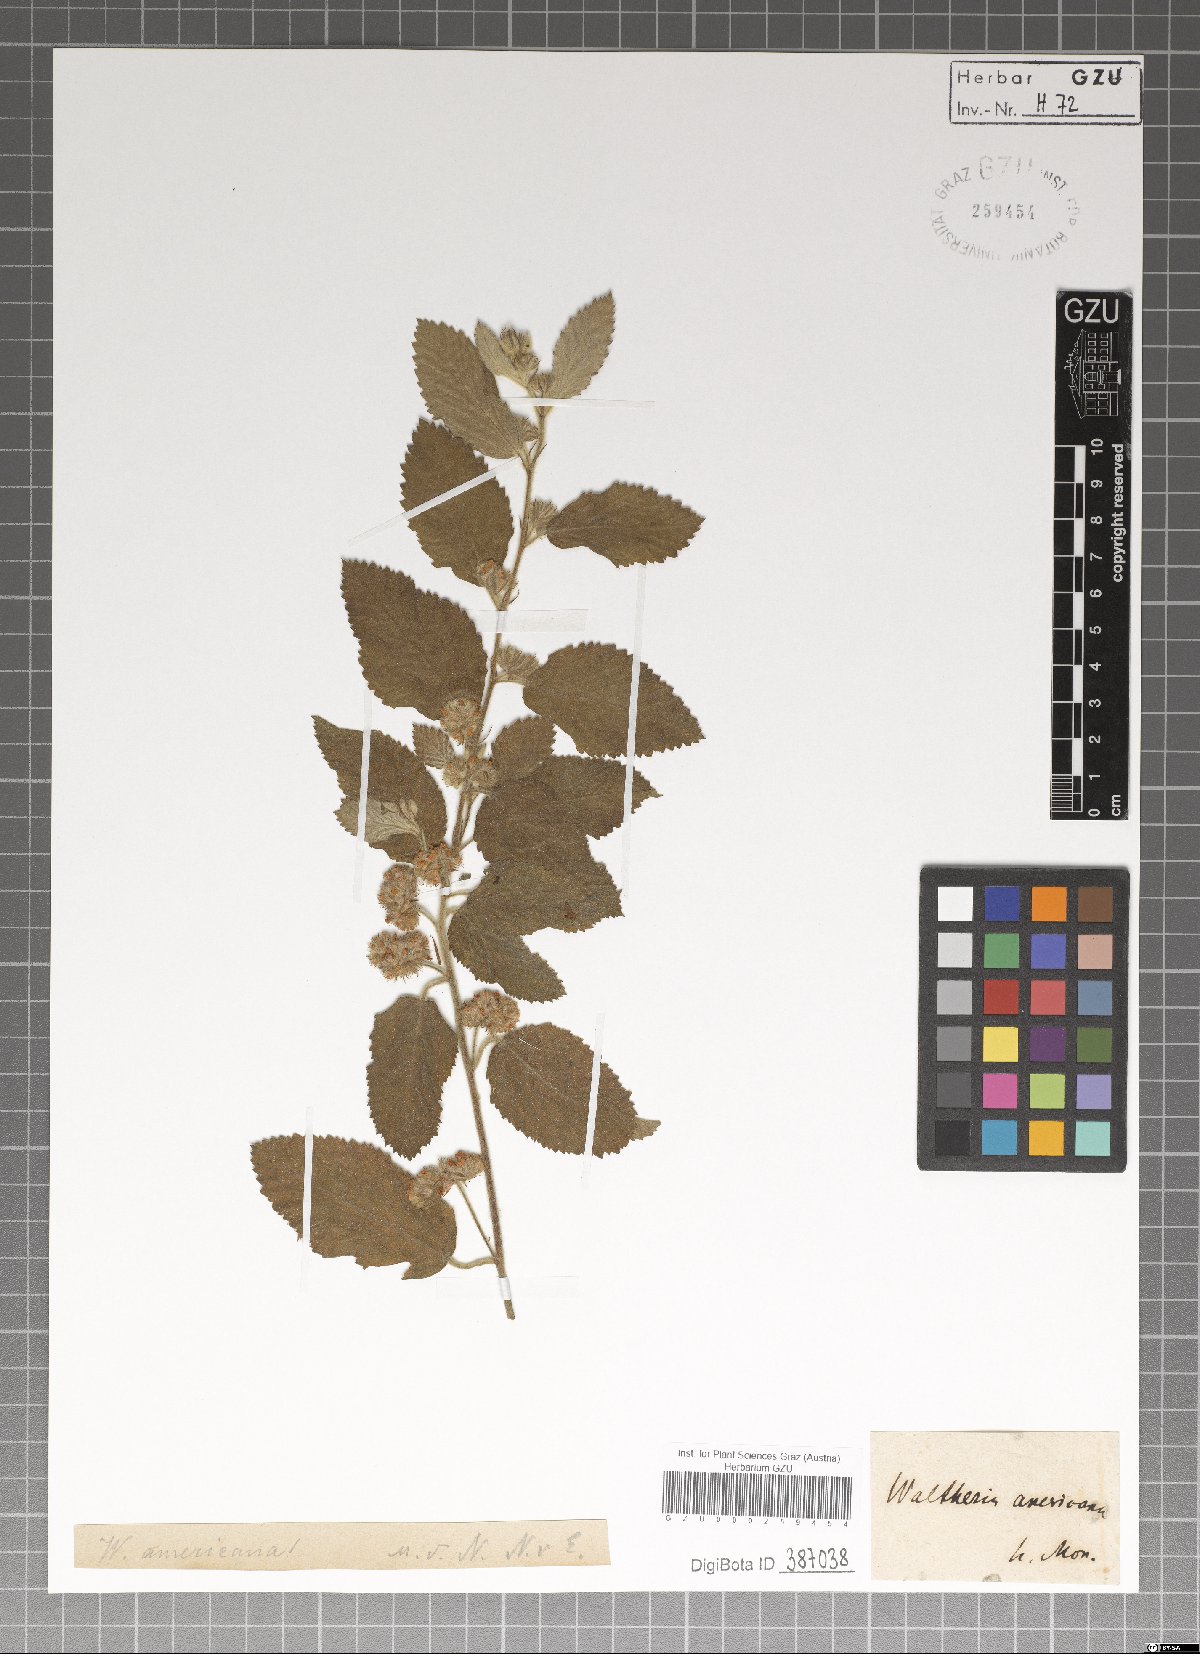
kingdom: Plantae
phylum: Tracheophyta
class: Magnoliopsida
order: Malvales
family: Malvaceae
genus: Waltheria
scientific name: Waltheria indica
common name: Leather-coat
